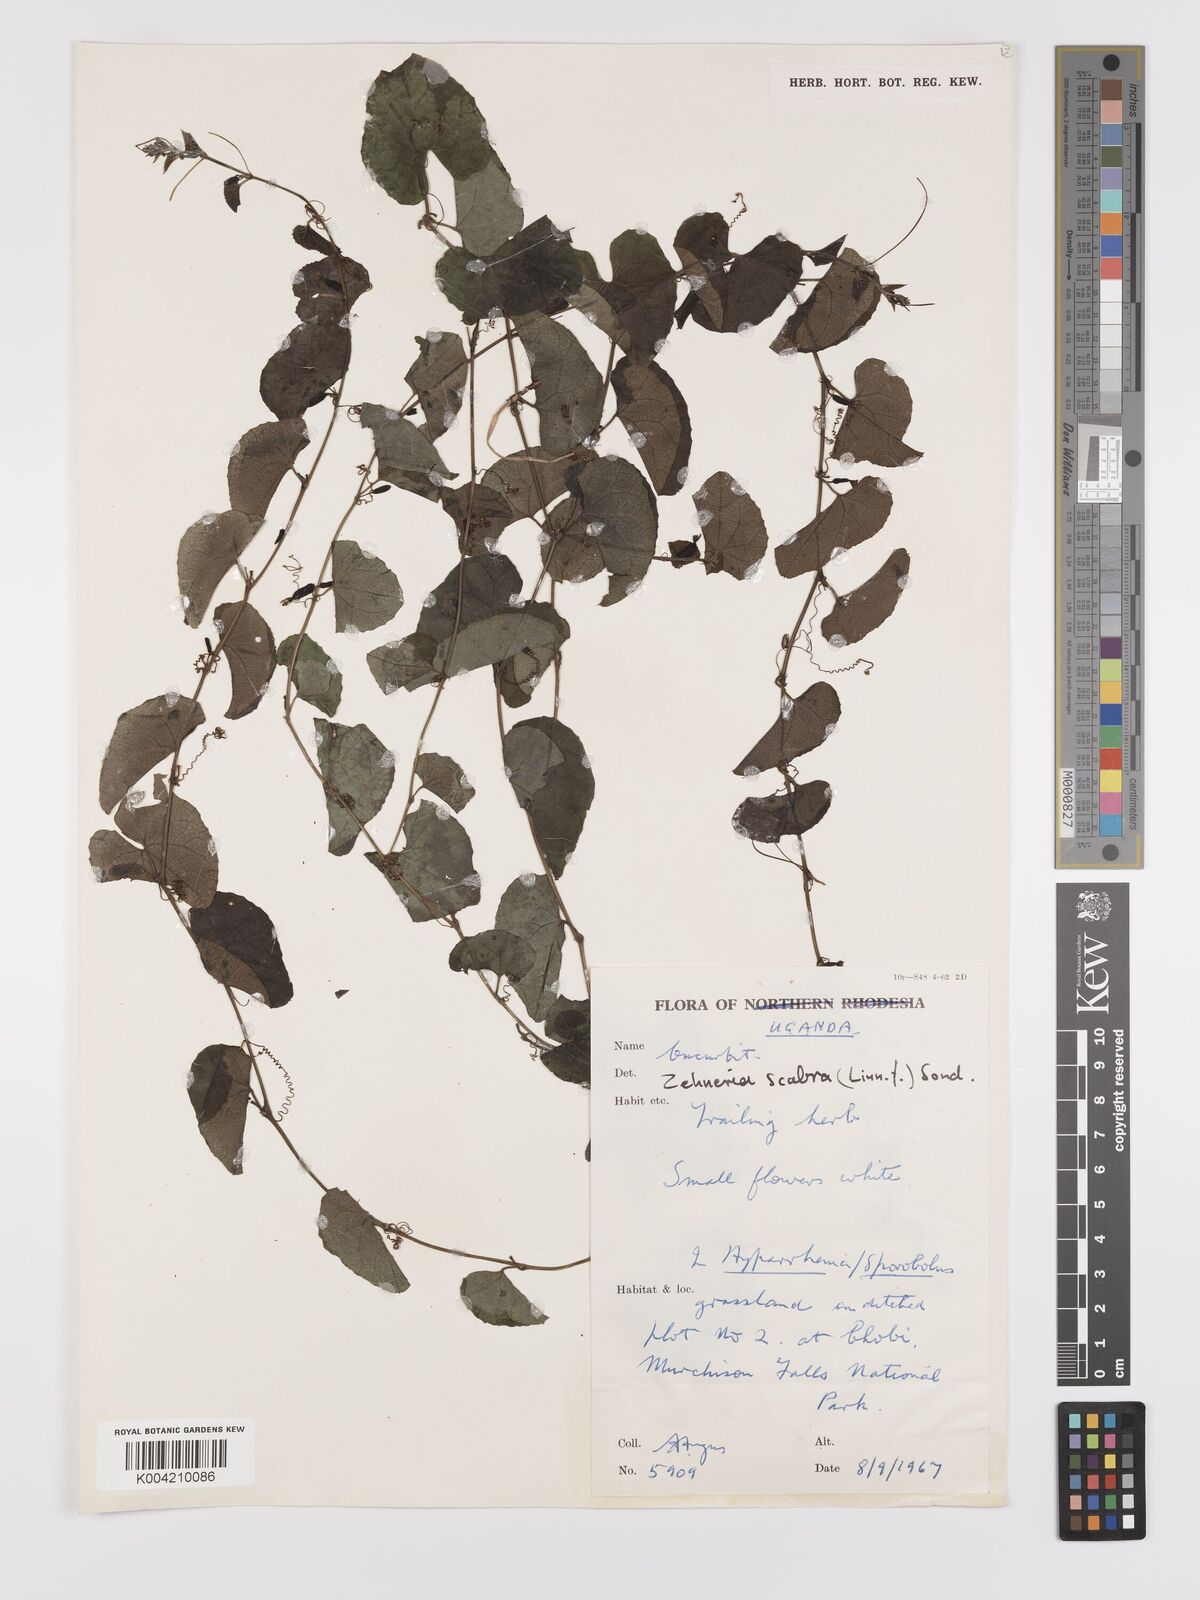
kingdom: Plantae
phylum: Tracheophyta
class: Magnoliopsida
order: Cucurbitales
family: Cucurbitaceae
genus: Zehneria
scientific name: Zehneria scabra
